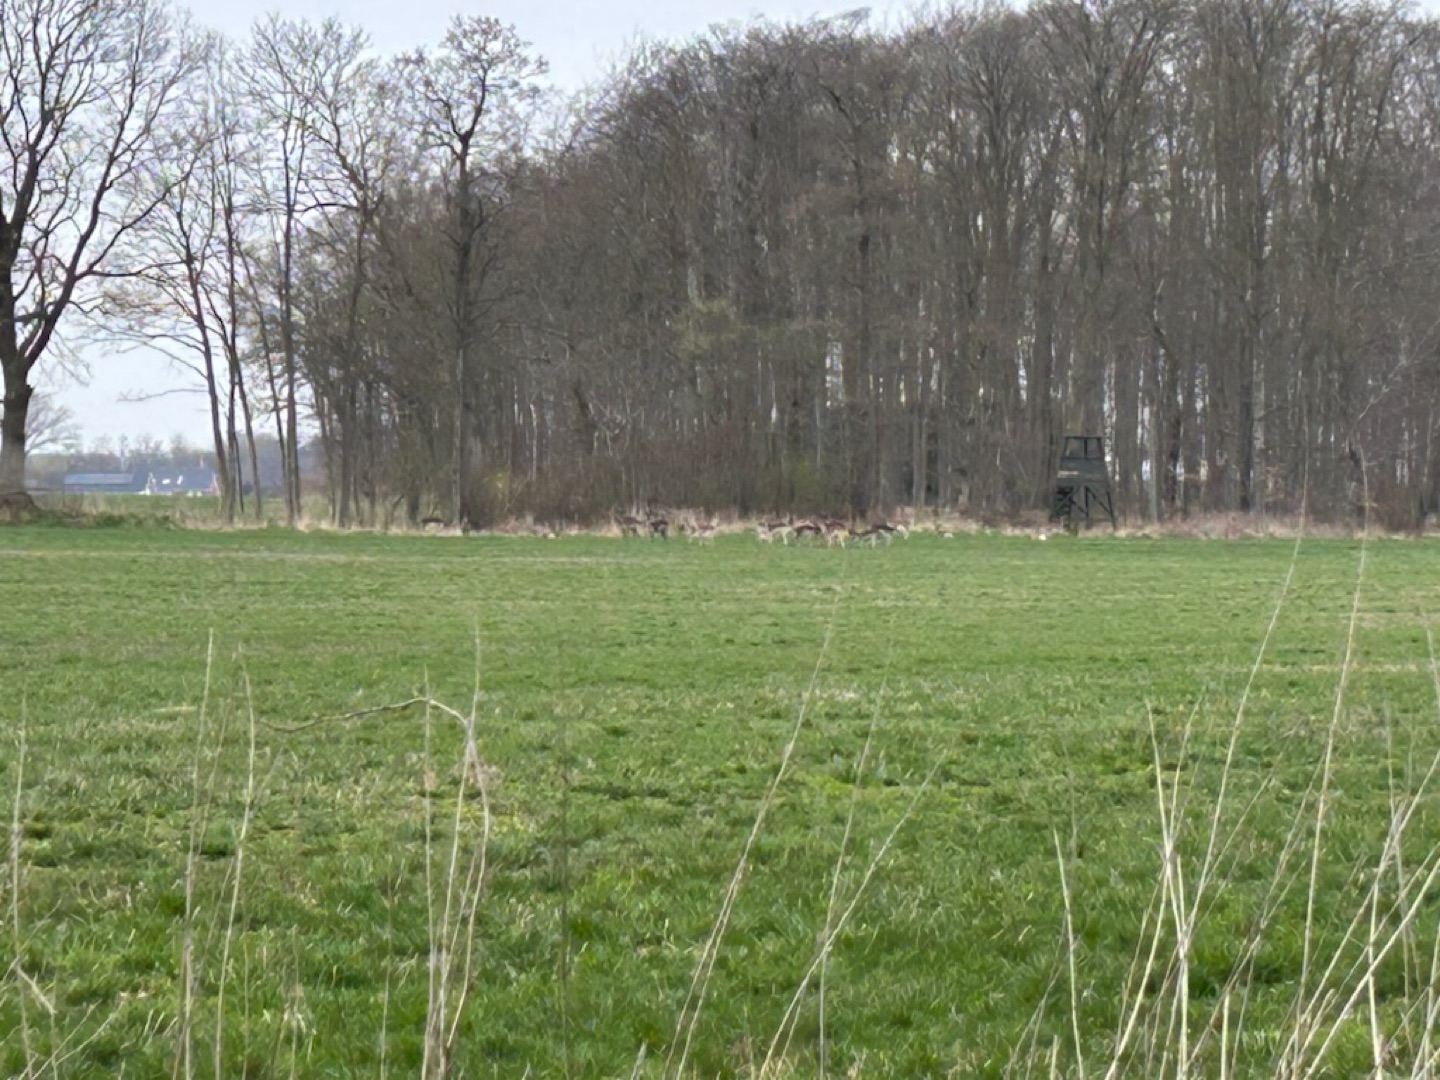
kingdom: Animalia
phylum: Chordata
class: Mammalia
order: Artiodactyla
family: Cervidae
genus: Dama
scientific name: Dama dama
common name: Dådyr
